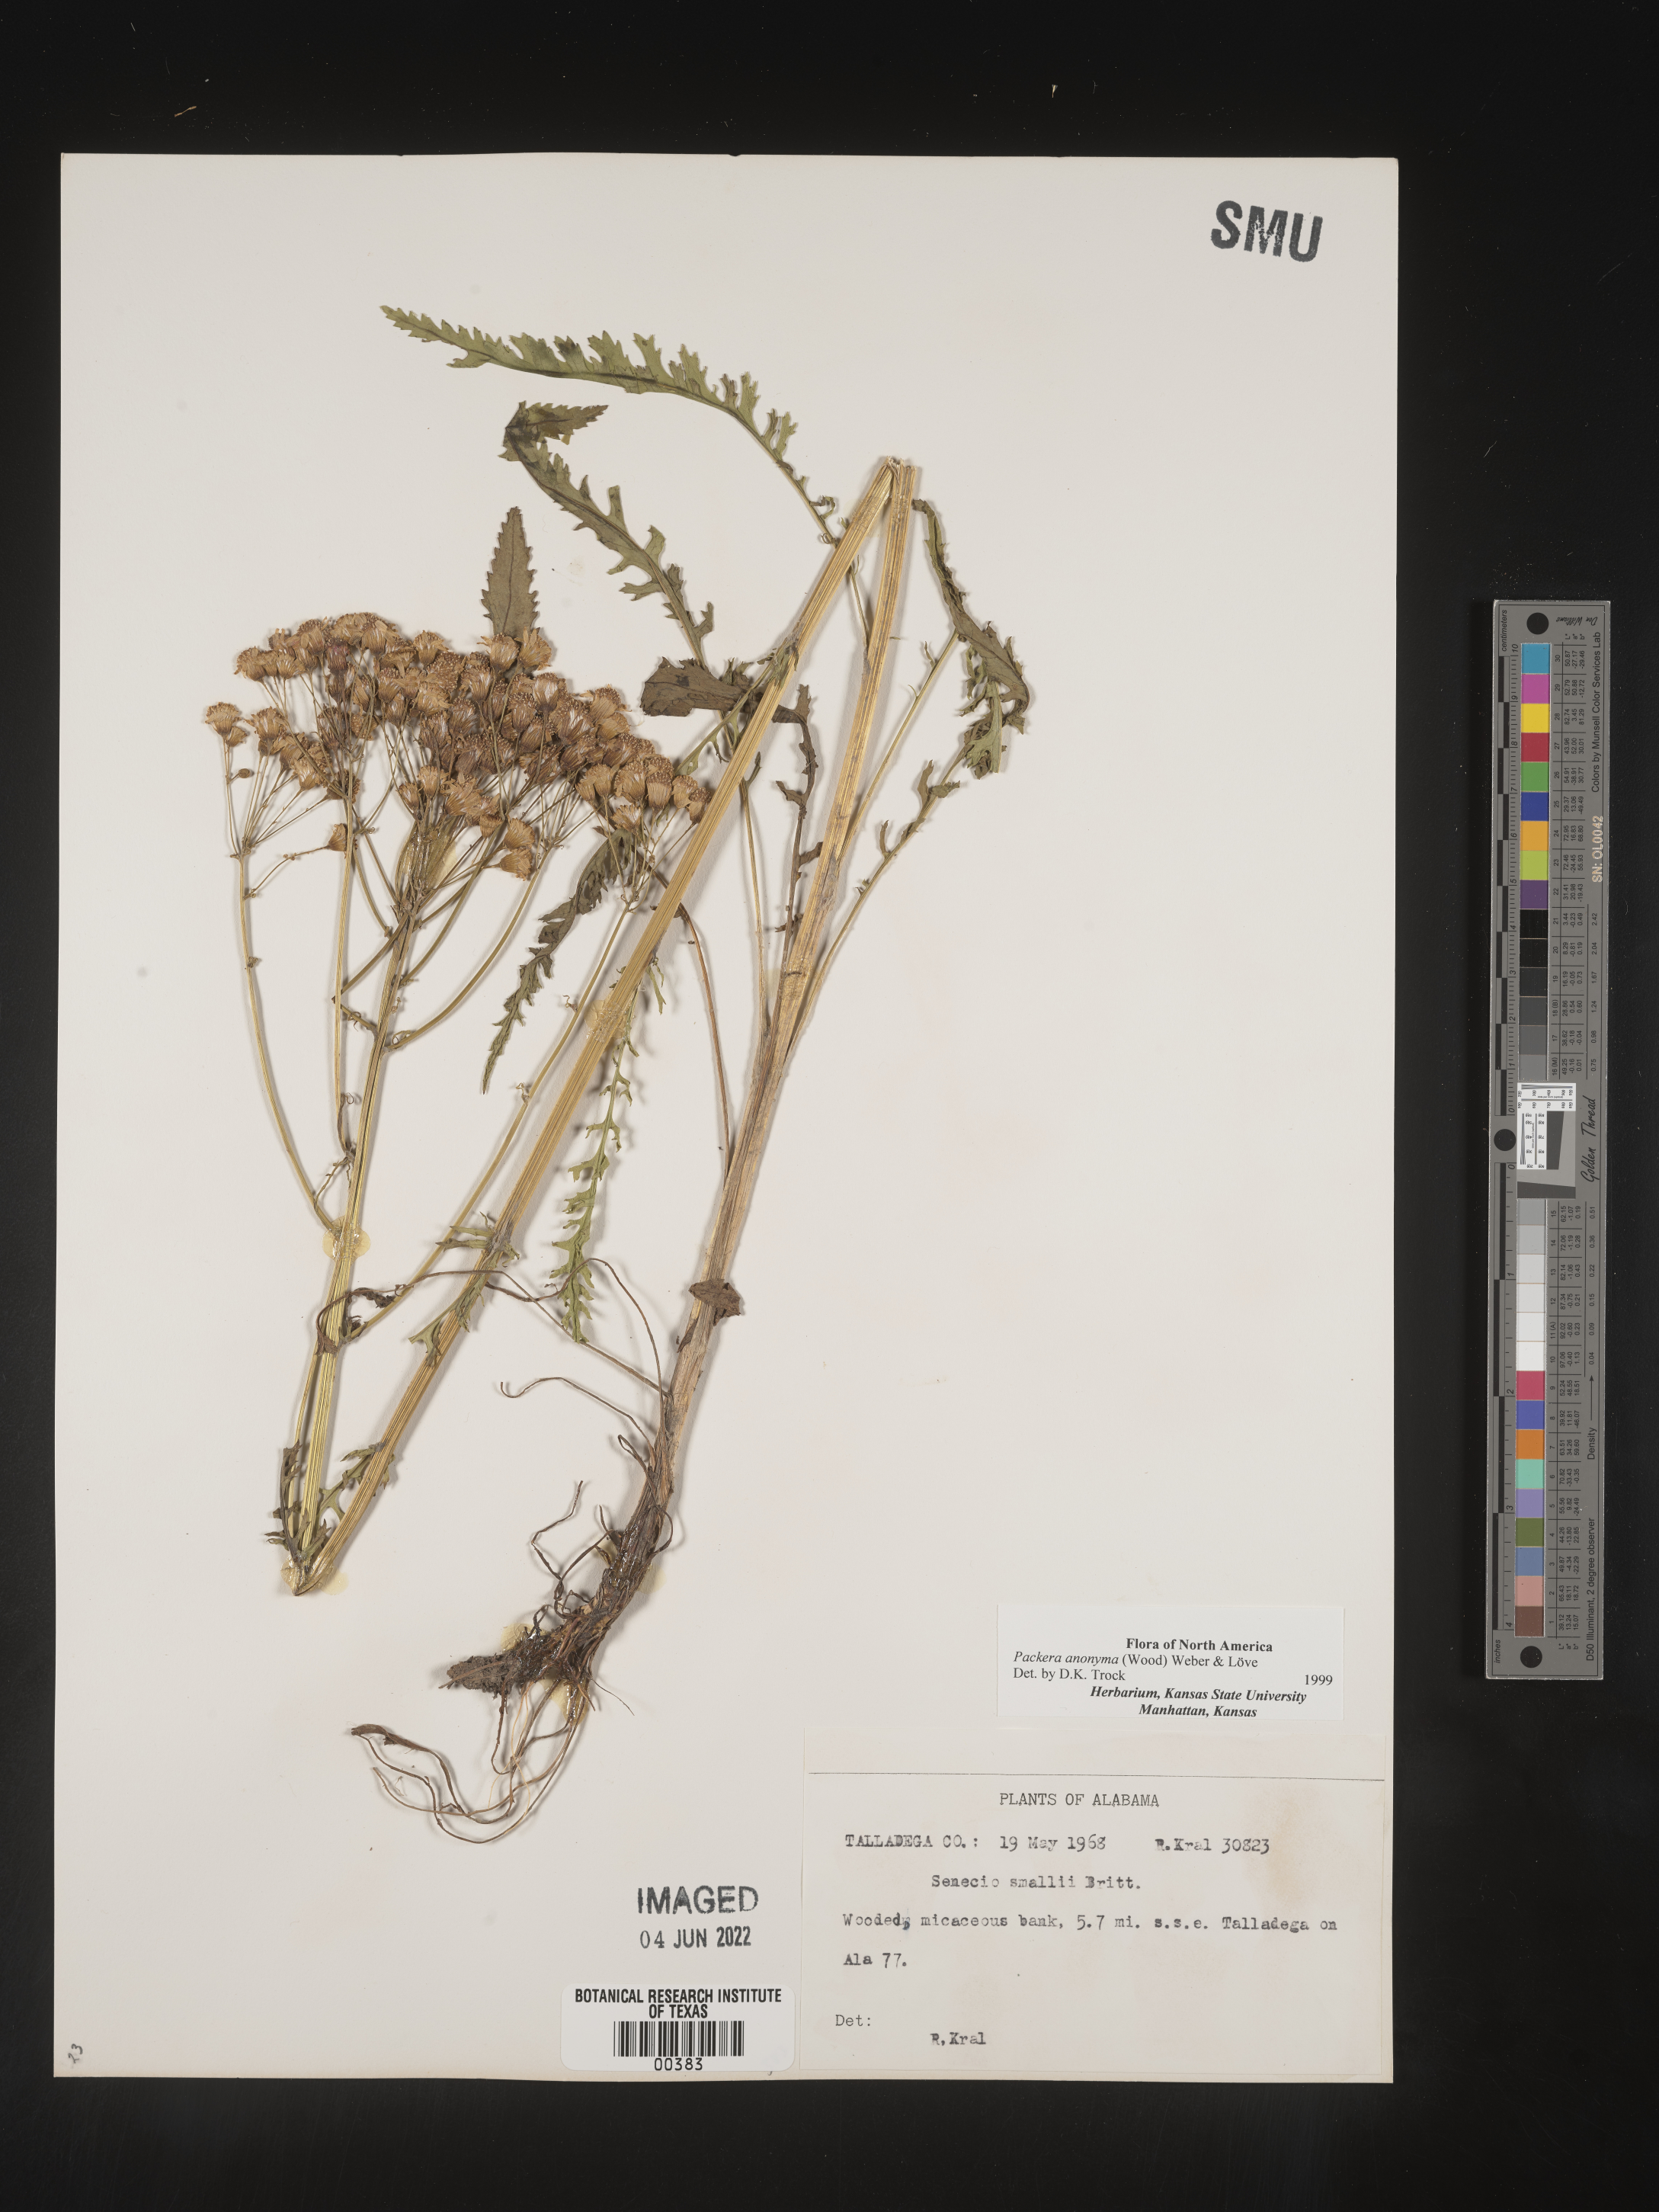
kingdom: Plantae
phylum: Tracheophyta
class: Magnoliopsida
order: Asterales
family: Asteraceae
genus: Packera
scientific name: Packera anonyma
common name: Small ragwort
